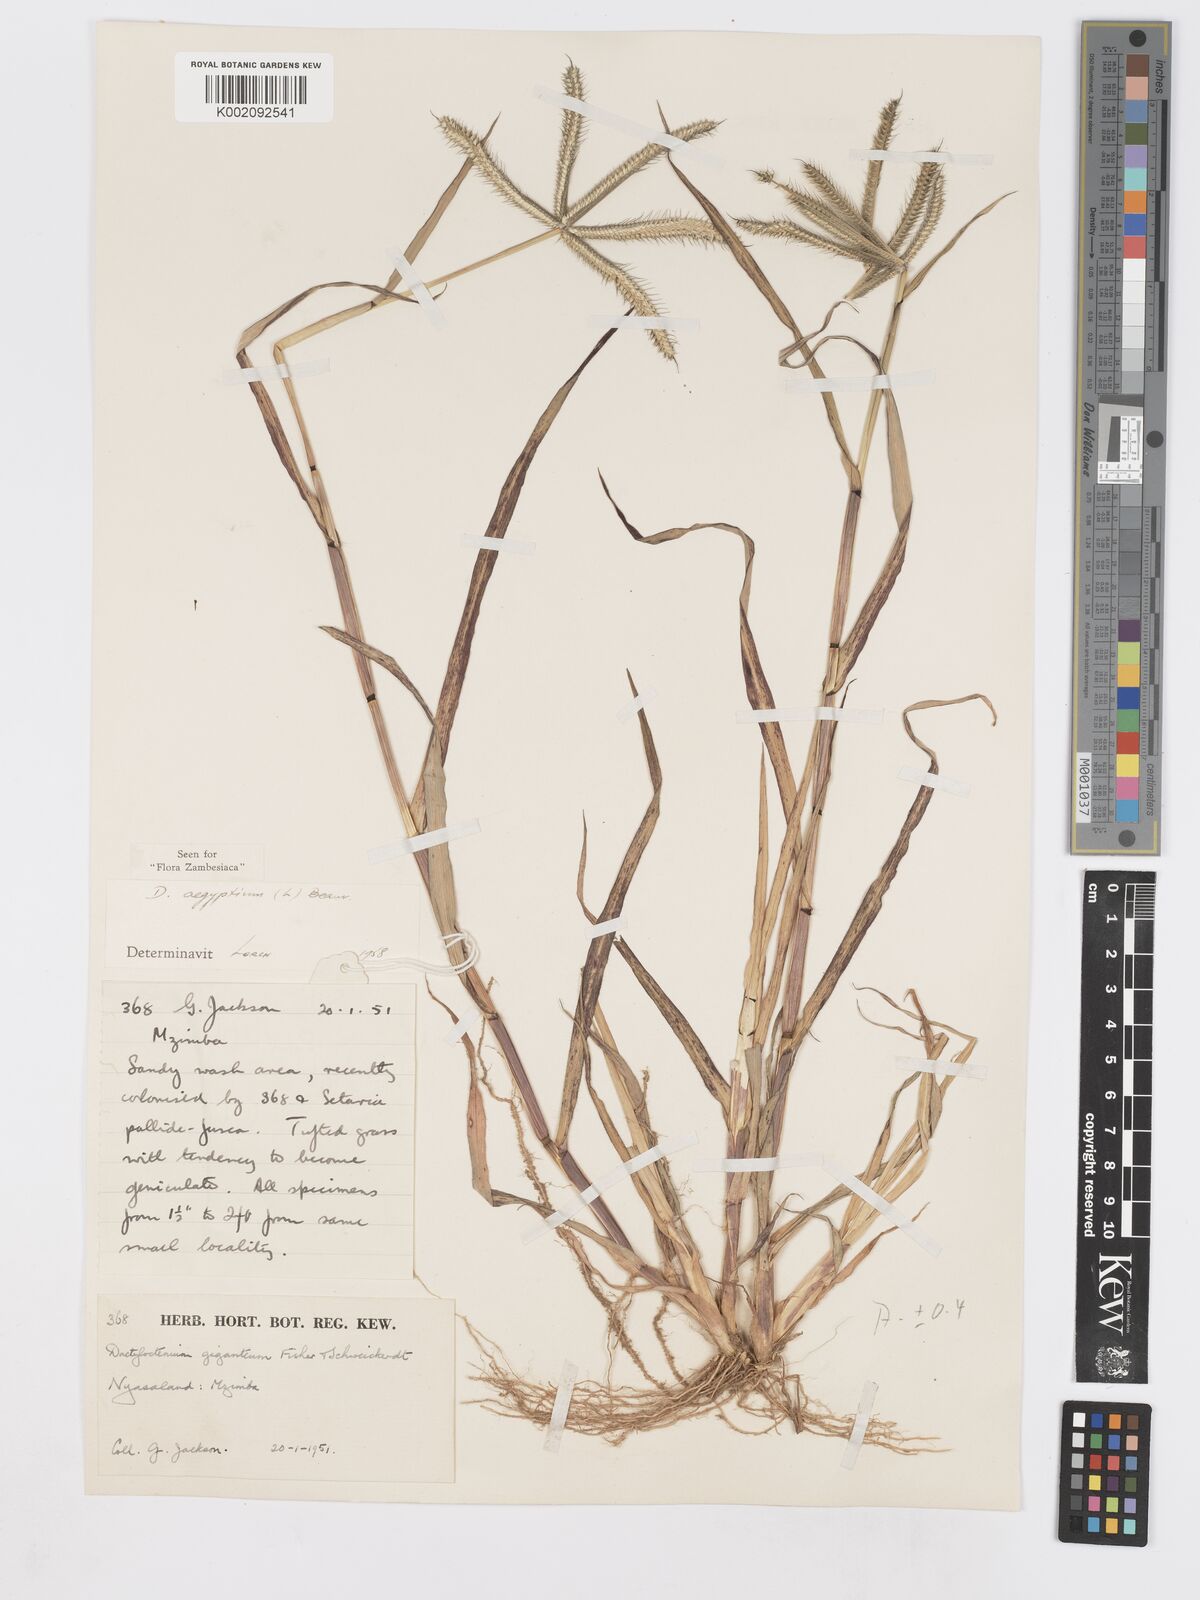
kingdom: Plantae
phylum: Tracheophyta
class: Liliopsida
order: Poales
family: Poaceae
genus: Dactyloctenium
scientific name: Dactyloctenium aegyptium
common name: Egyptian grass
